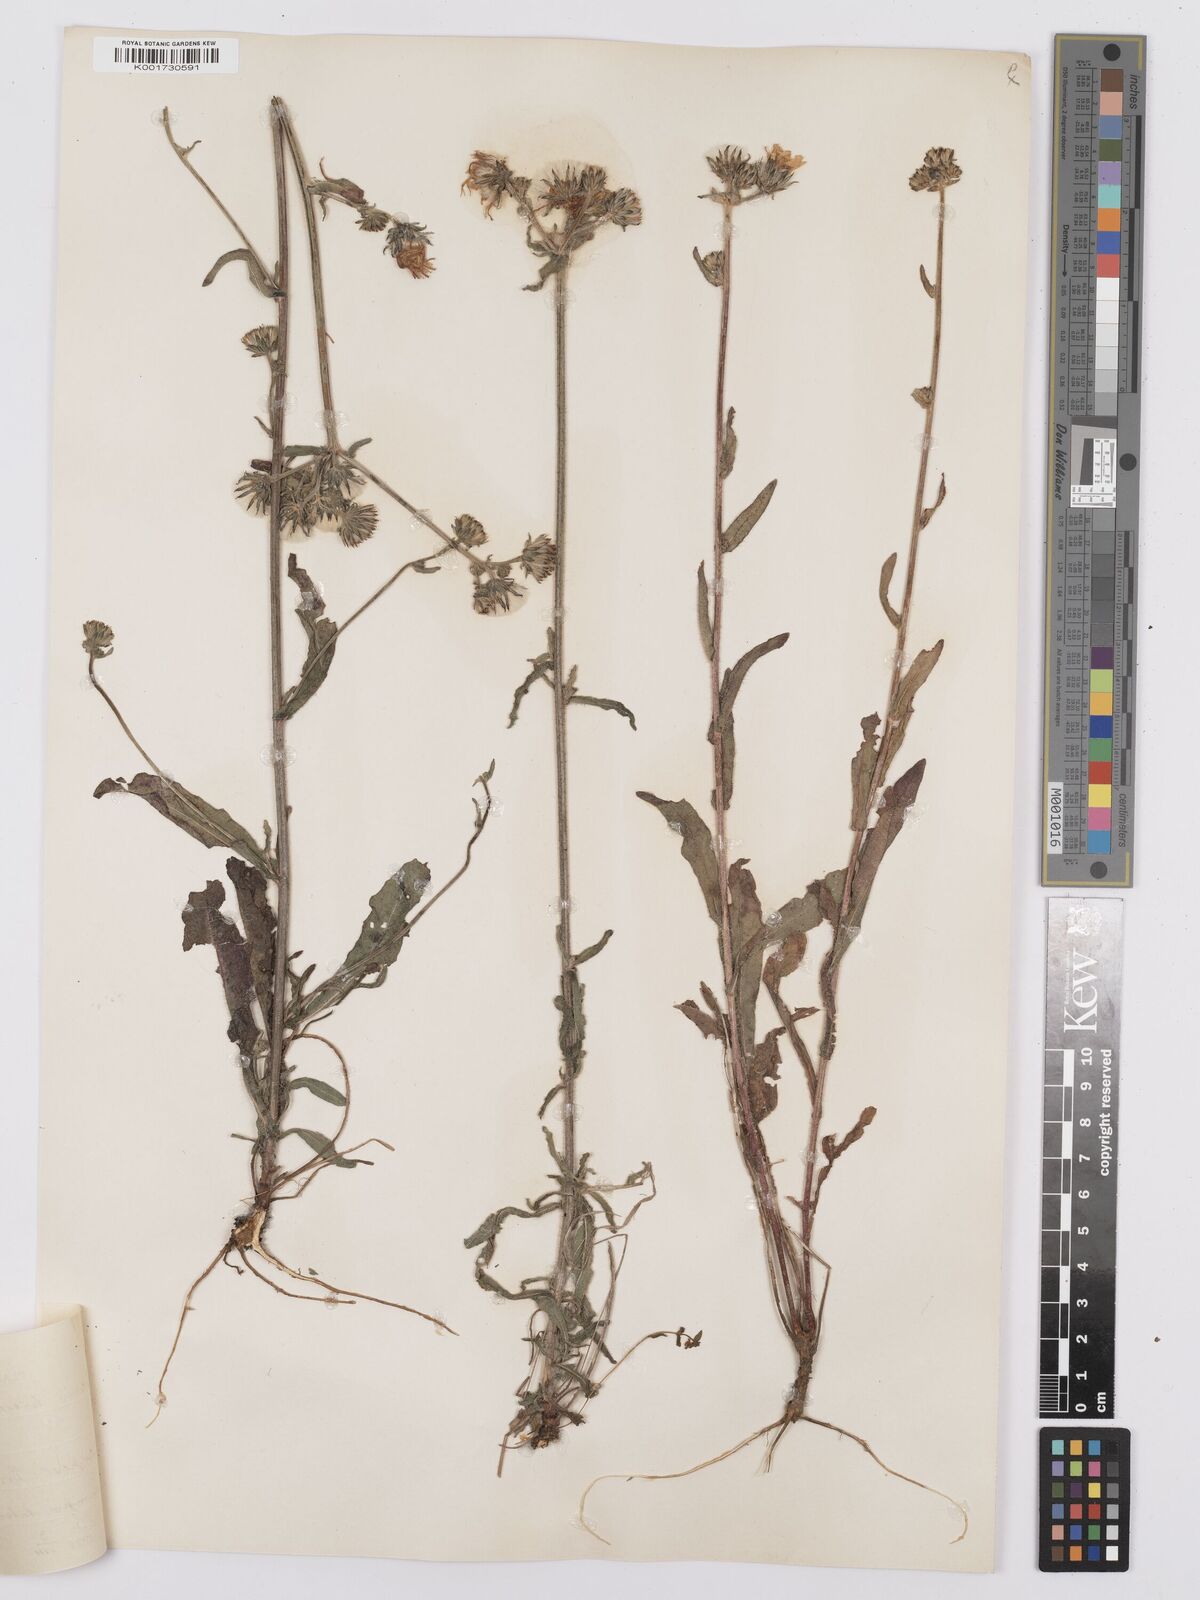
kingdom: Plantae
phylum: Tracheophyta
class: Magnoliopsida
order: Asterales
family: Asteraceae
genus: Picris
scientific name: Picris hieracioides
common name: Hawkweed oxtongue
